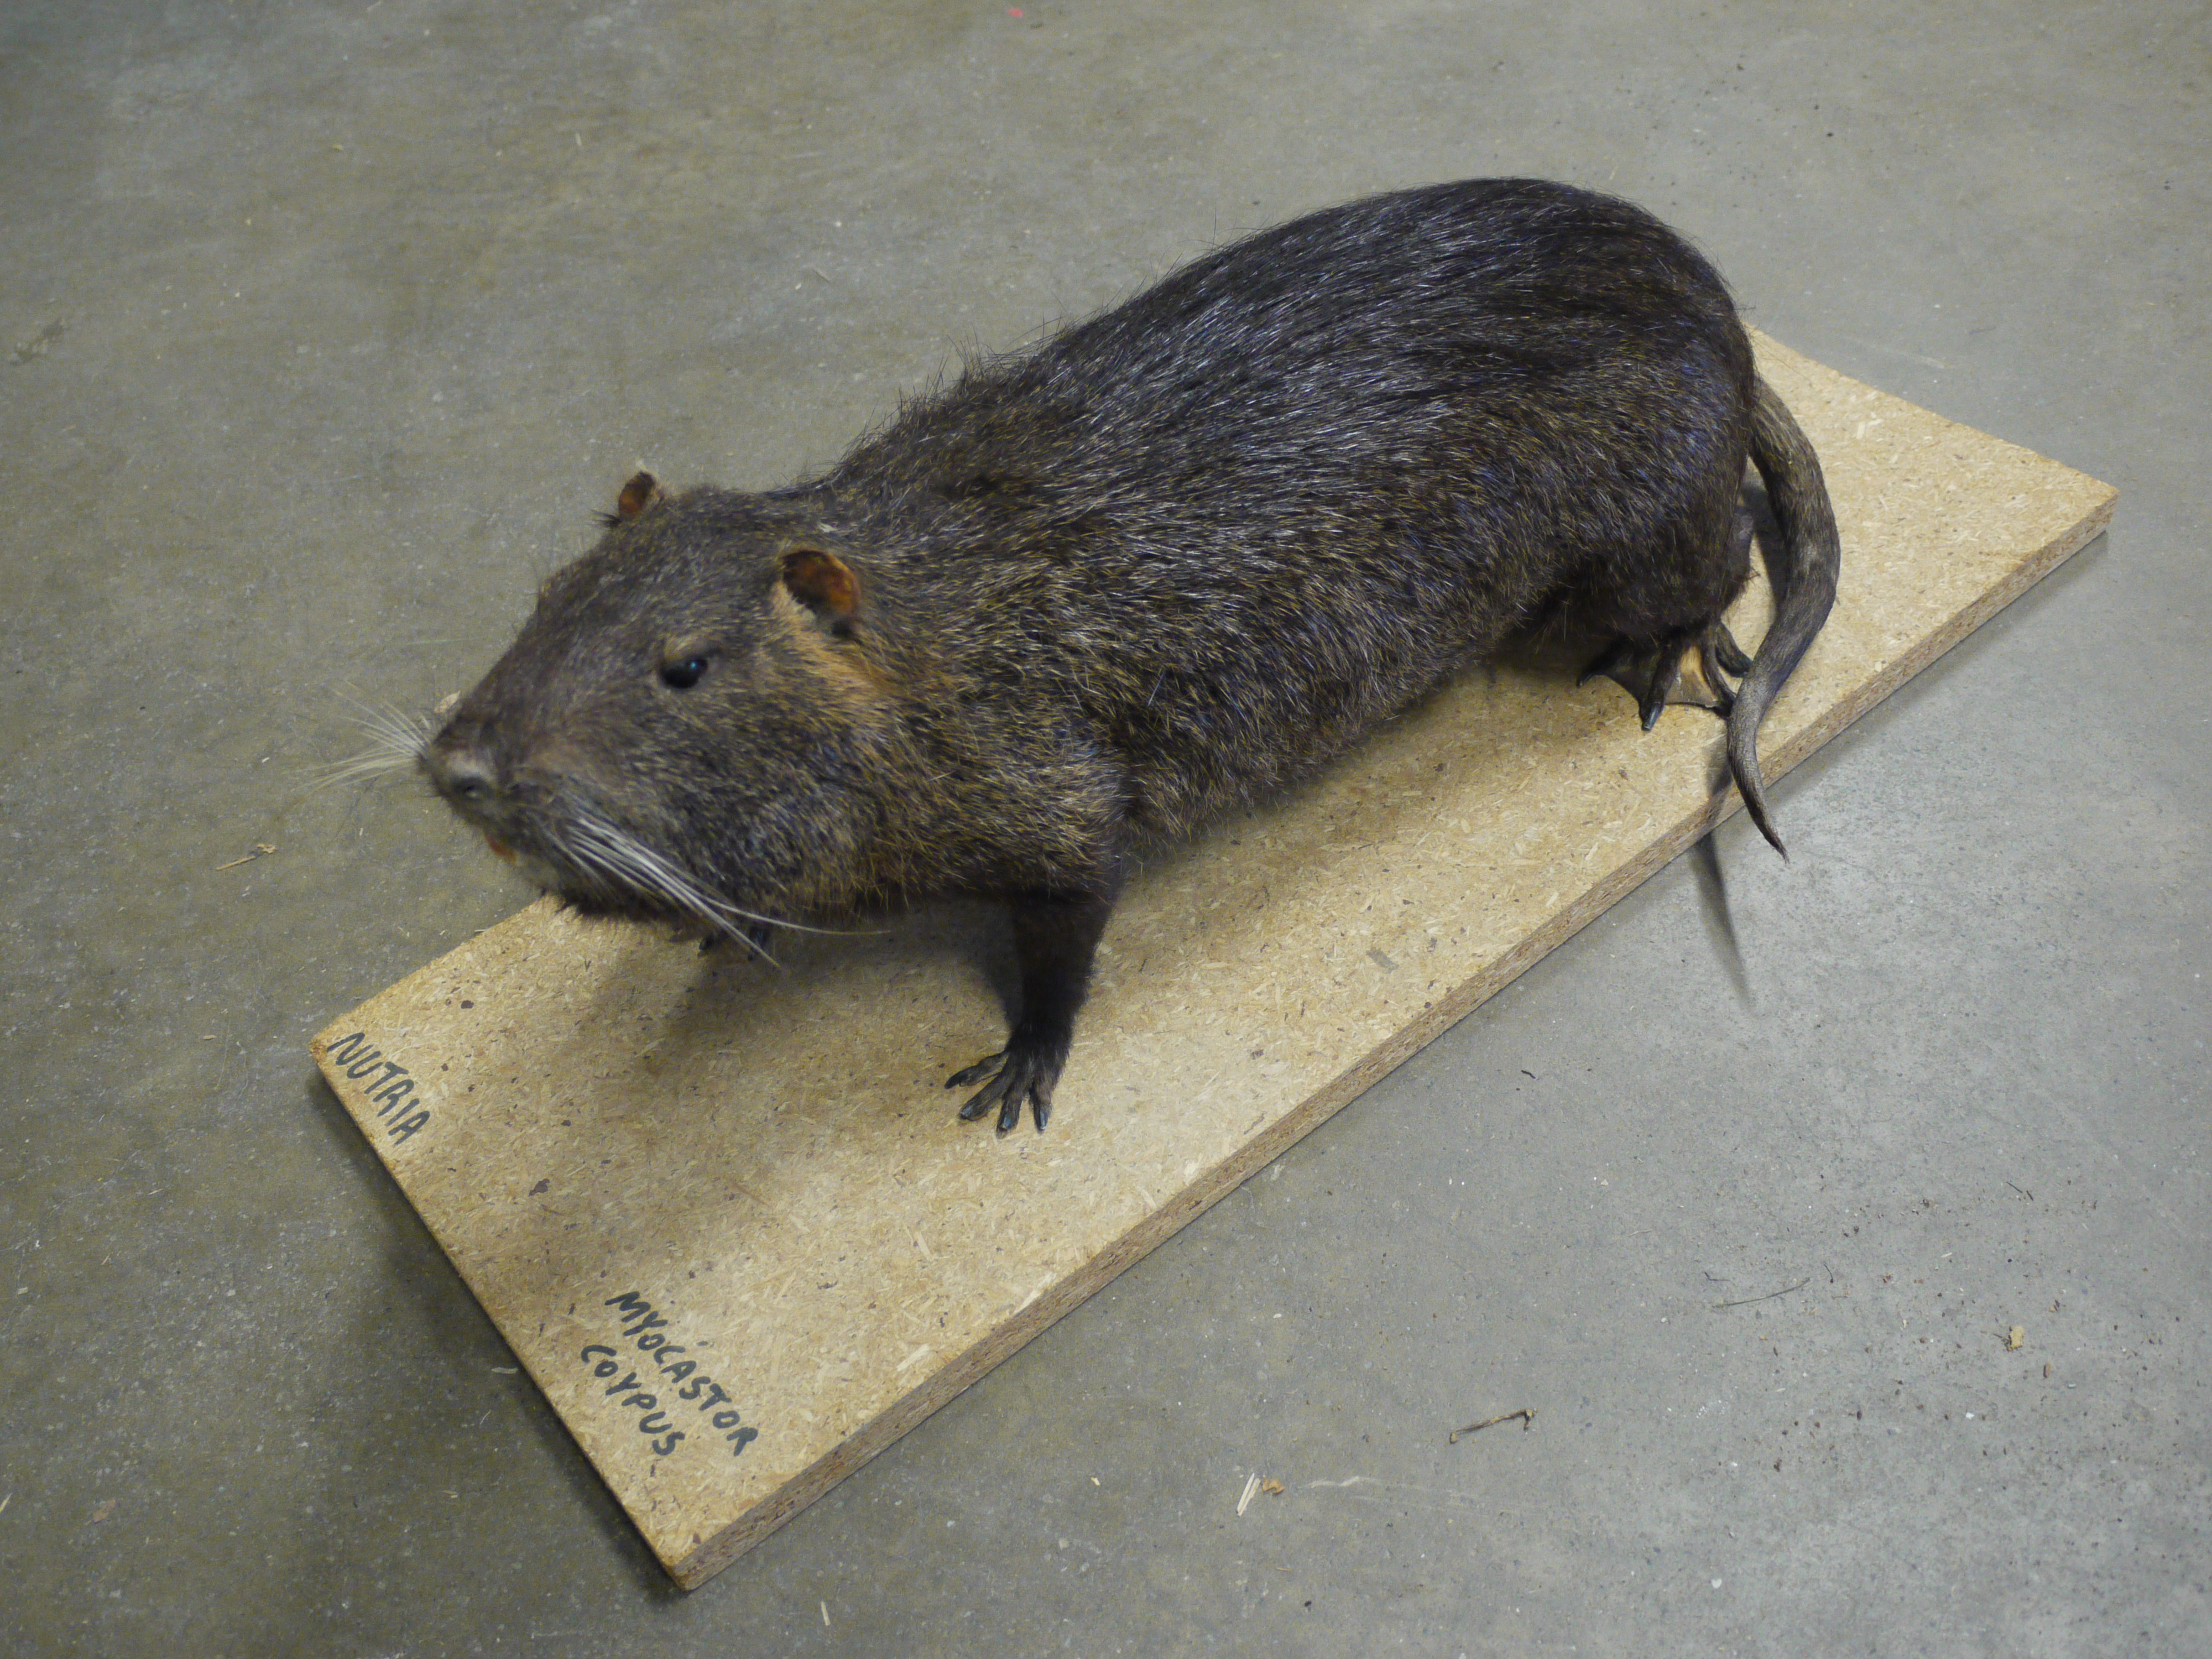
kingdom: Animalia
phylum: Chordata
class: Mammalia
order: Rodentia
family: Myocastoridae
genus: Myocastor
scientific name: Myocastor coypus
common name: Coypu
